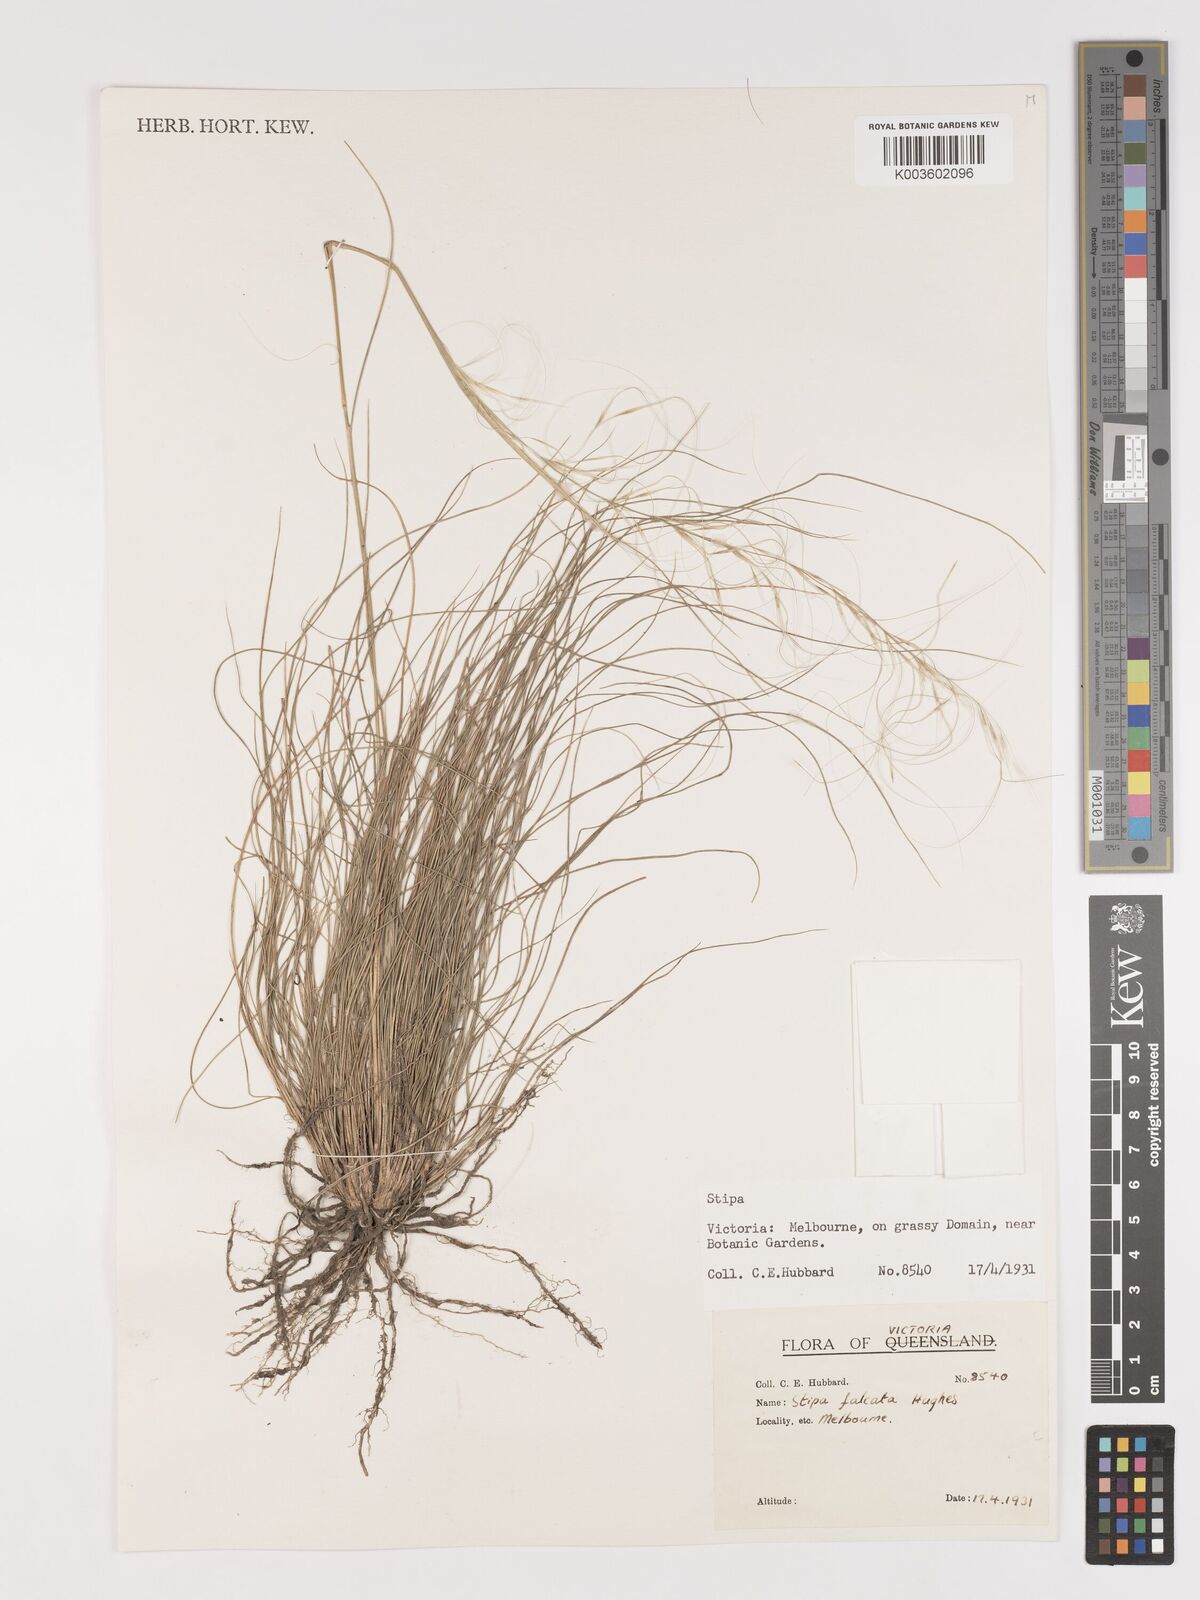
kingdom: Plantae
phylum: Tracheophyta
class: Liliopsida
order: Poales
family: Poaceae
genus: Austrostipa
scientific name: Austrostipa scabra
